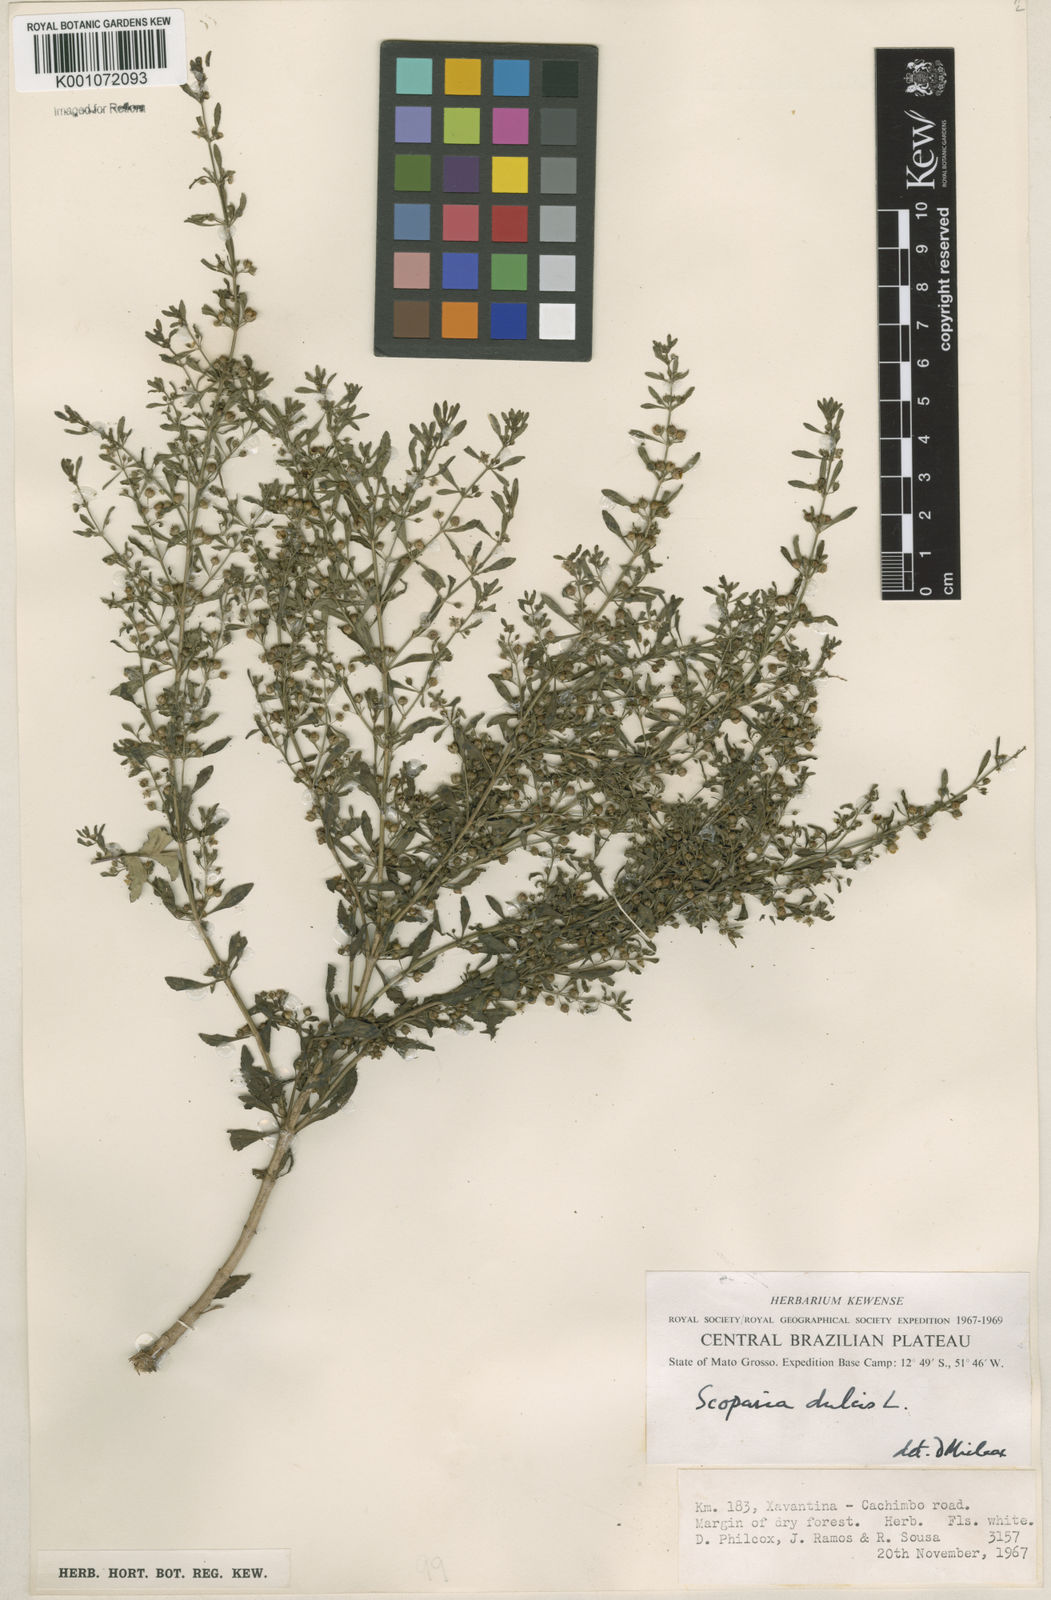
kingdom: Plantae
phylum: Tracheophyta
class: Magnoliopsida
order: Lamiales
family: Plantaginaceae
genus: Scoparia
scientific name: Scoparia dulcis
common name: Scoparia-weed
